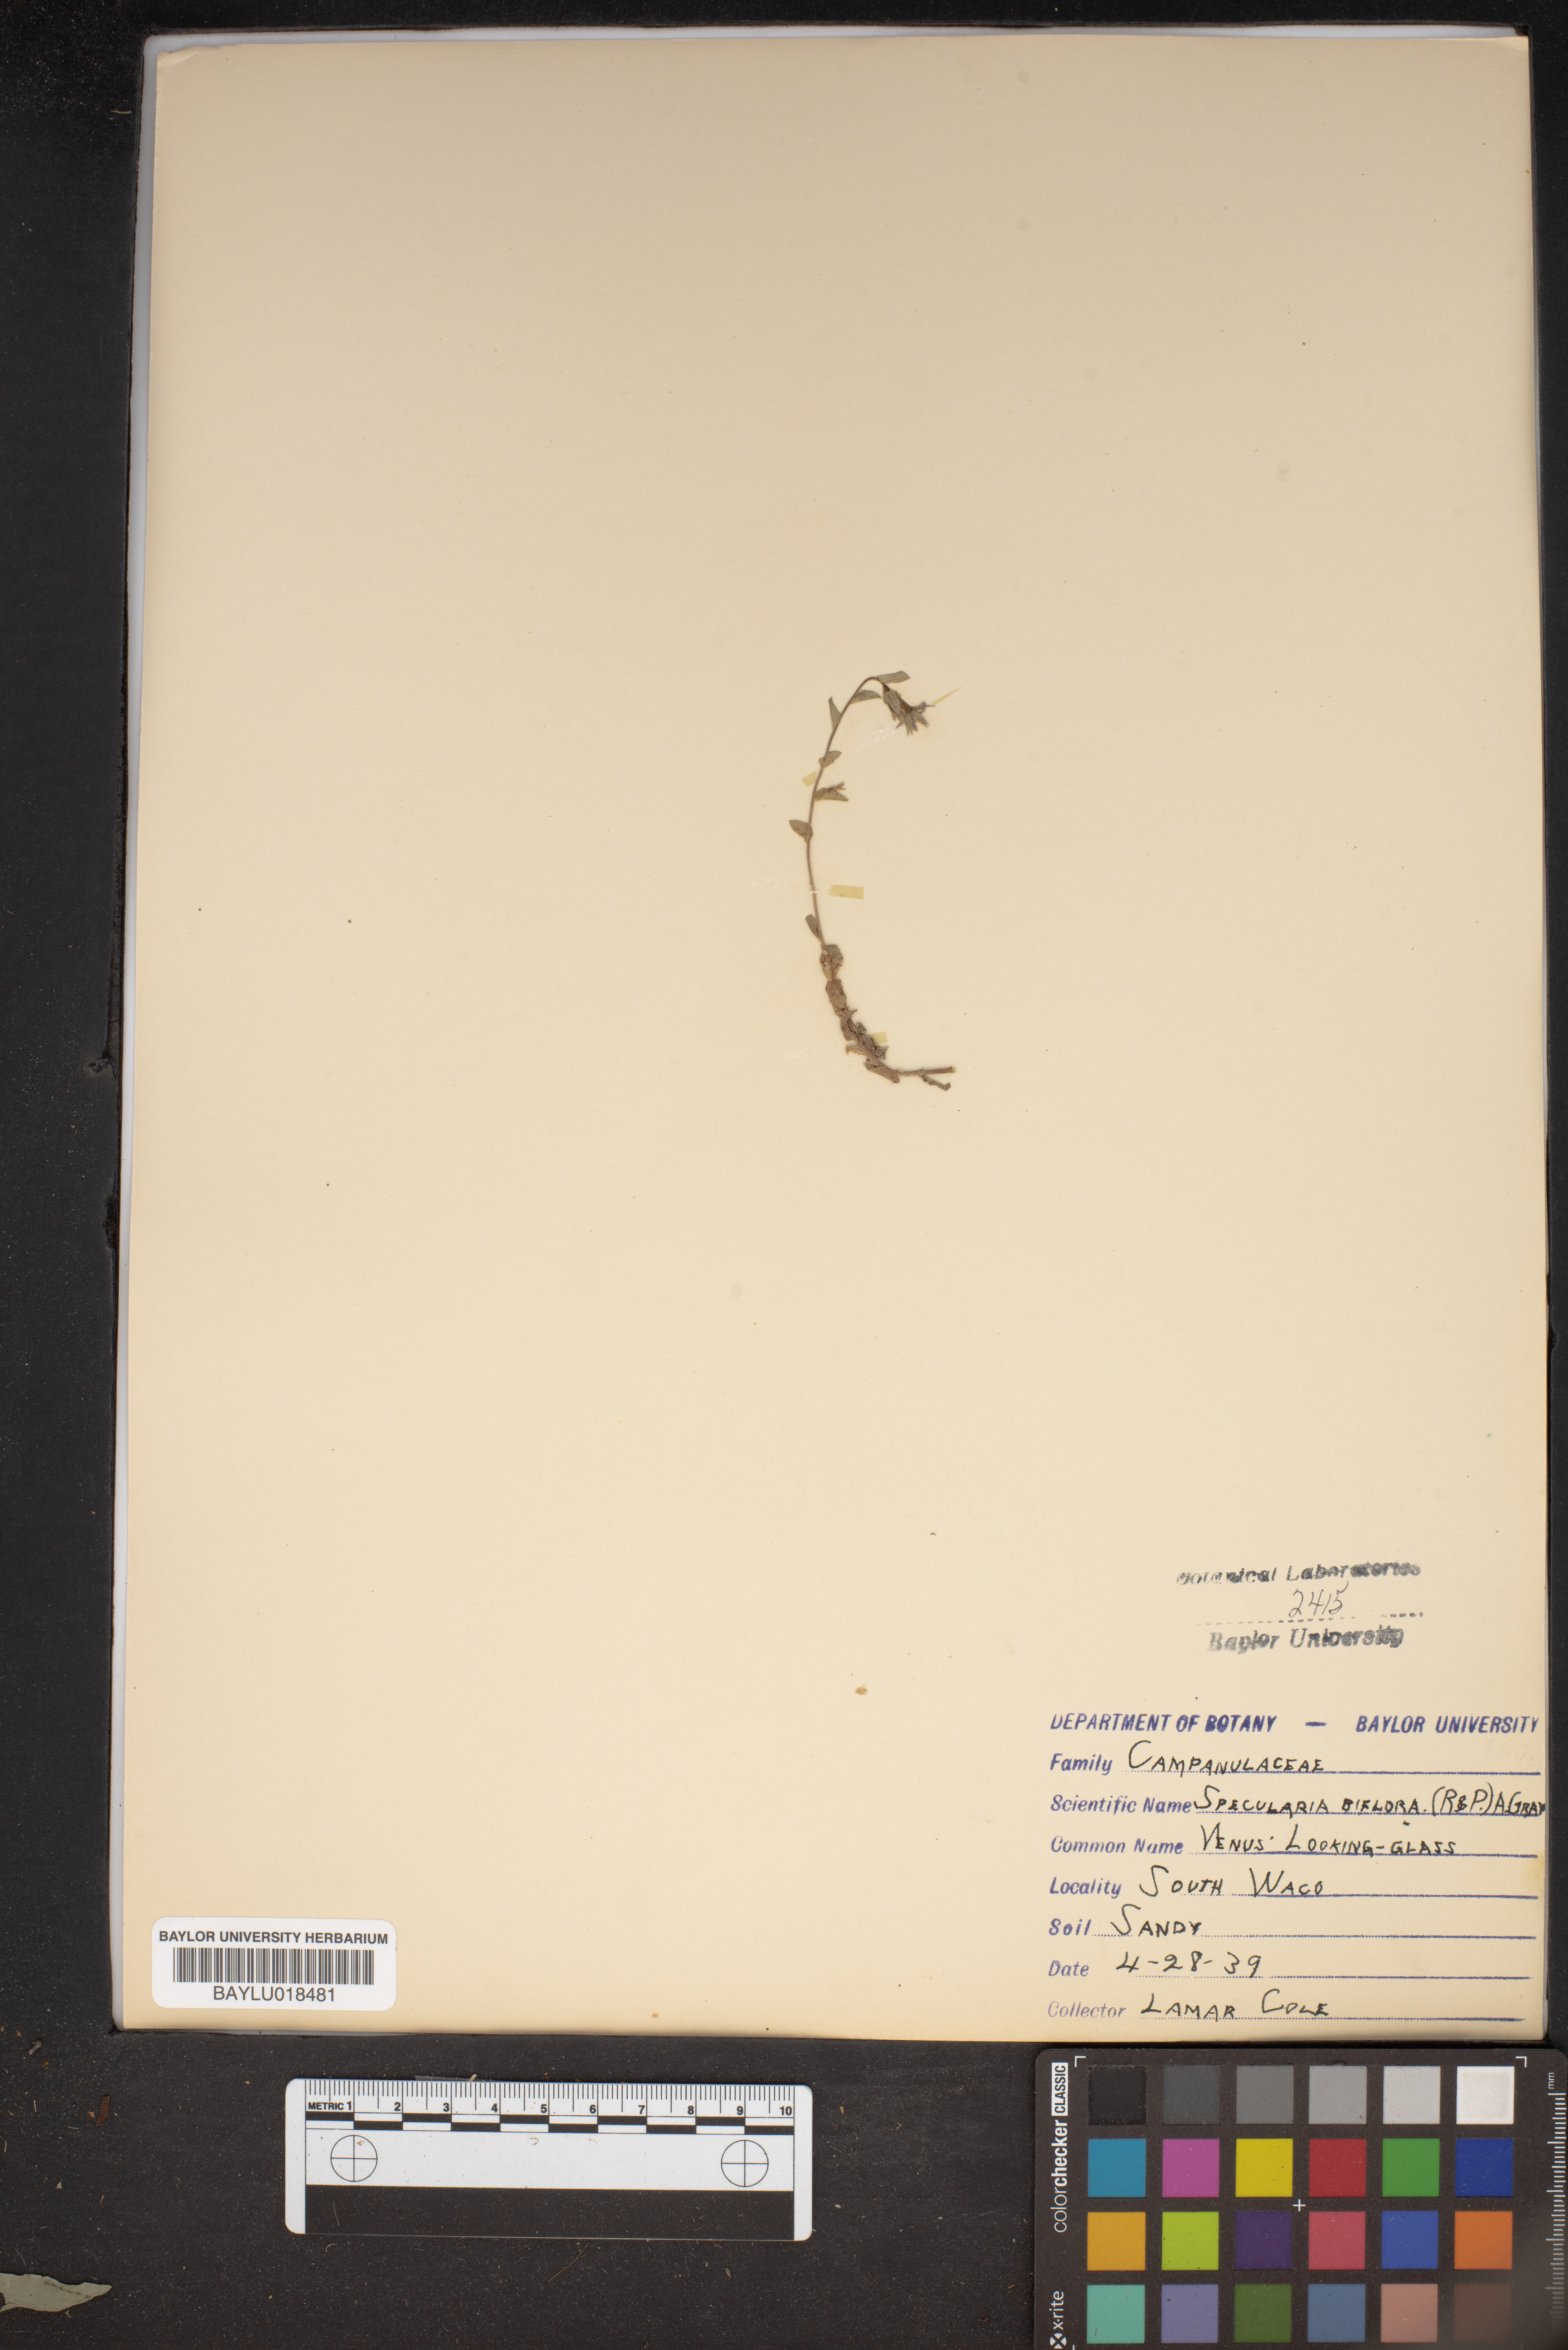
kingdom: Plantae
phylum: Tracheophyta
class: Magnoliopsida
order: Asterales
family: Campanulaceae
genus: Triodanis
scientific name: Triodanis perfoliata
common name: Clasping venus' looking-glass
